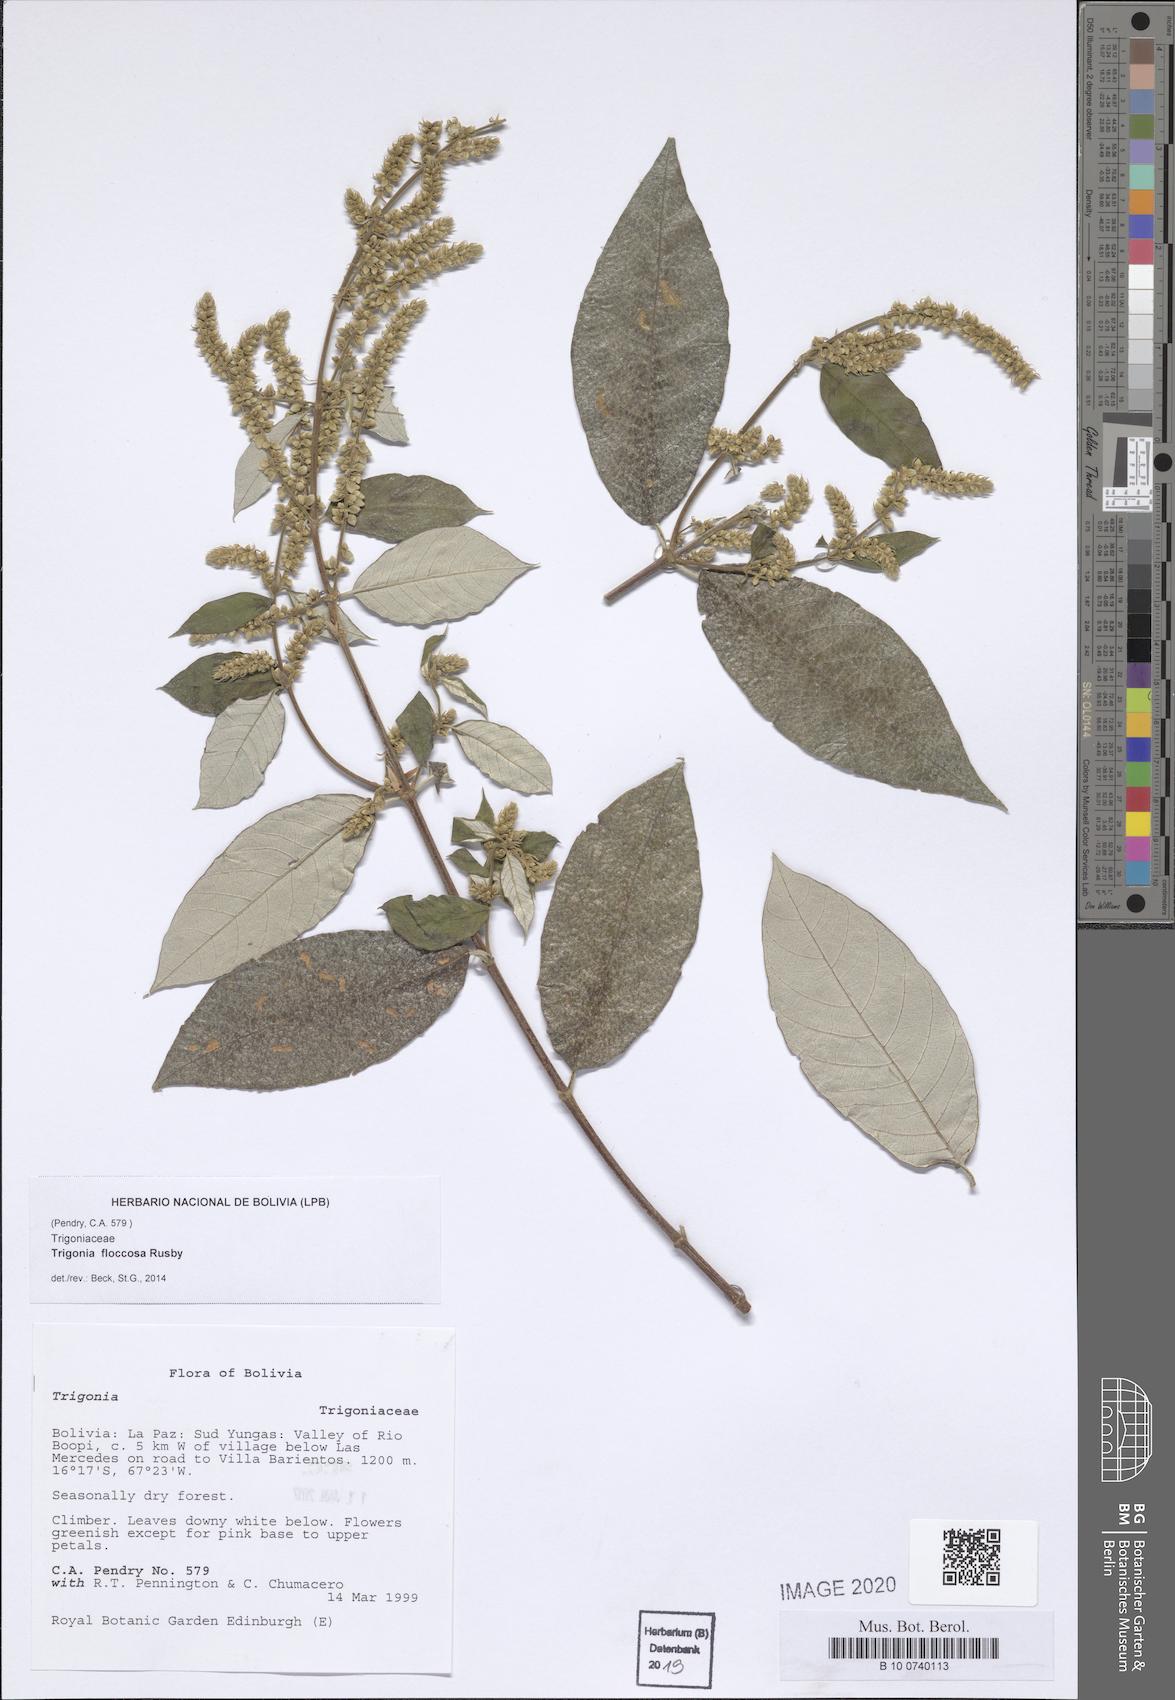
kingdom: Plantae
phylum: Tracheophyta
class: Magnoliopsida
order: Malpighiales
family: Trigoniaceae
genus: Trigonia
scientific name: Trigonia floccosa
